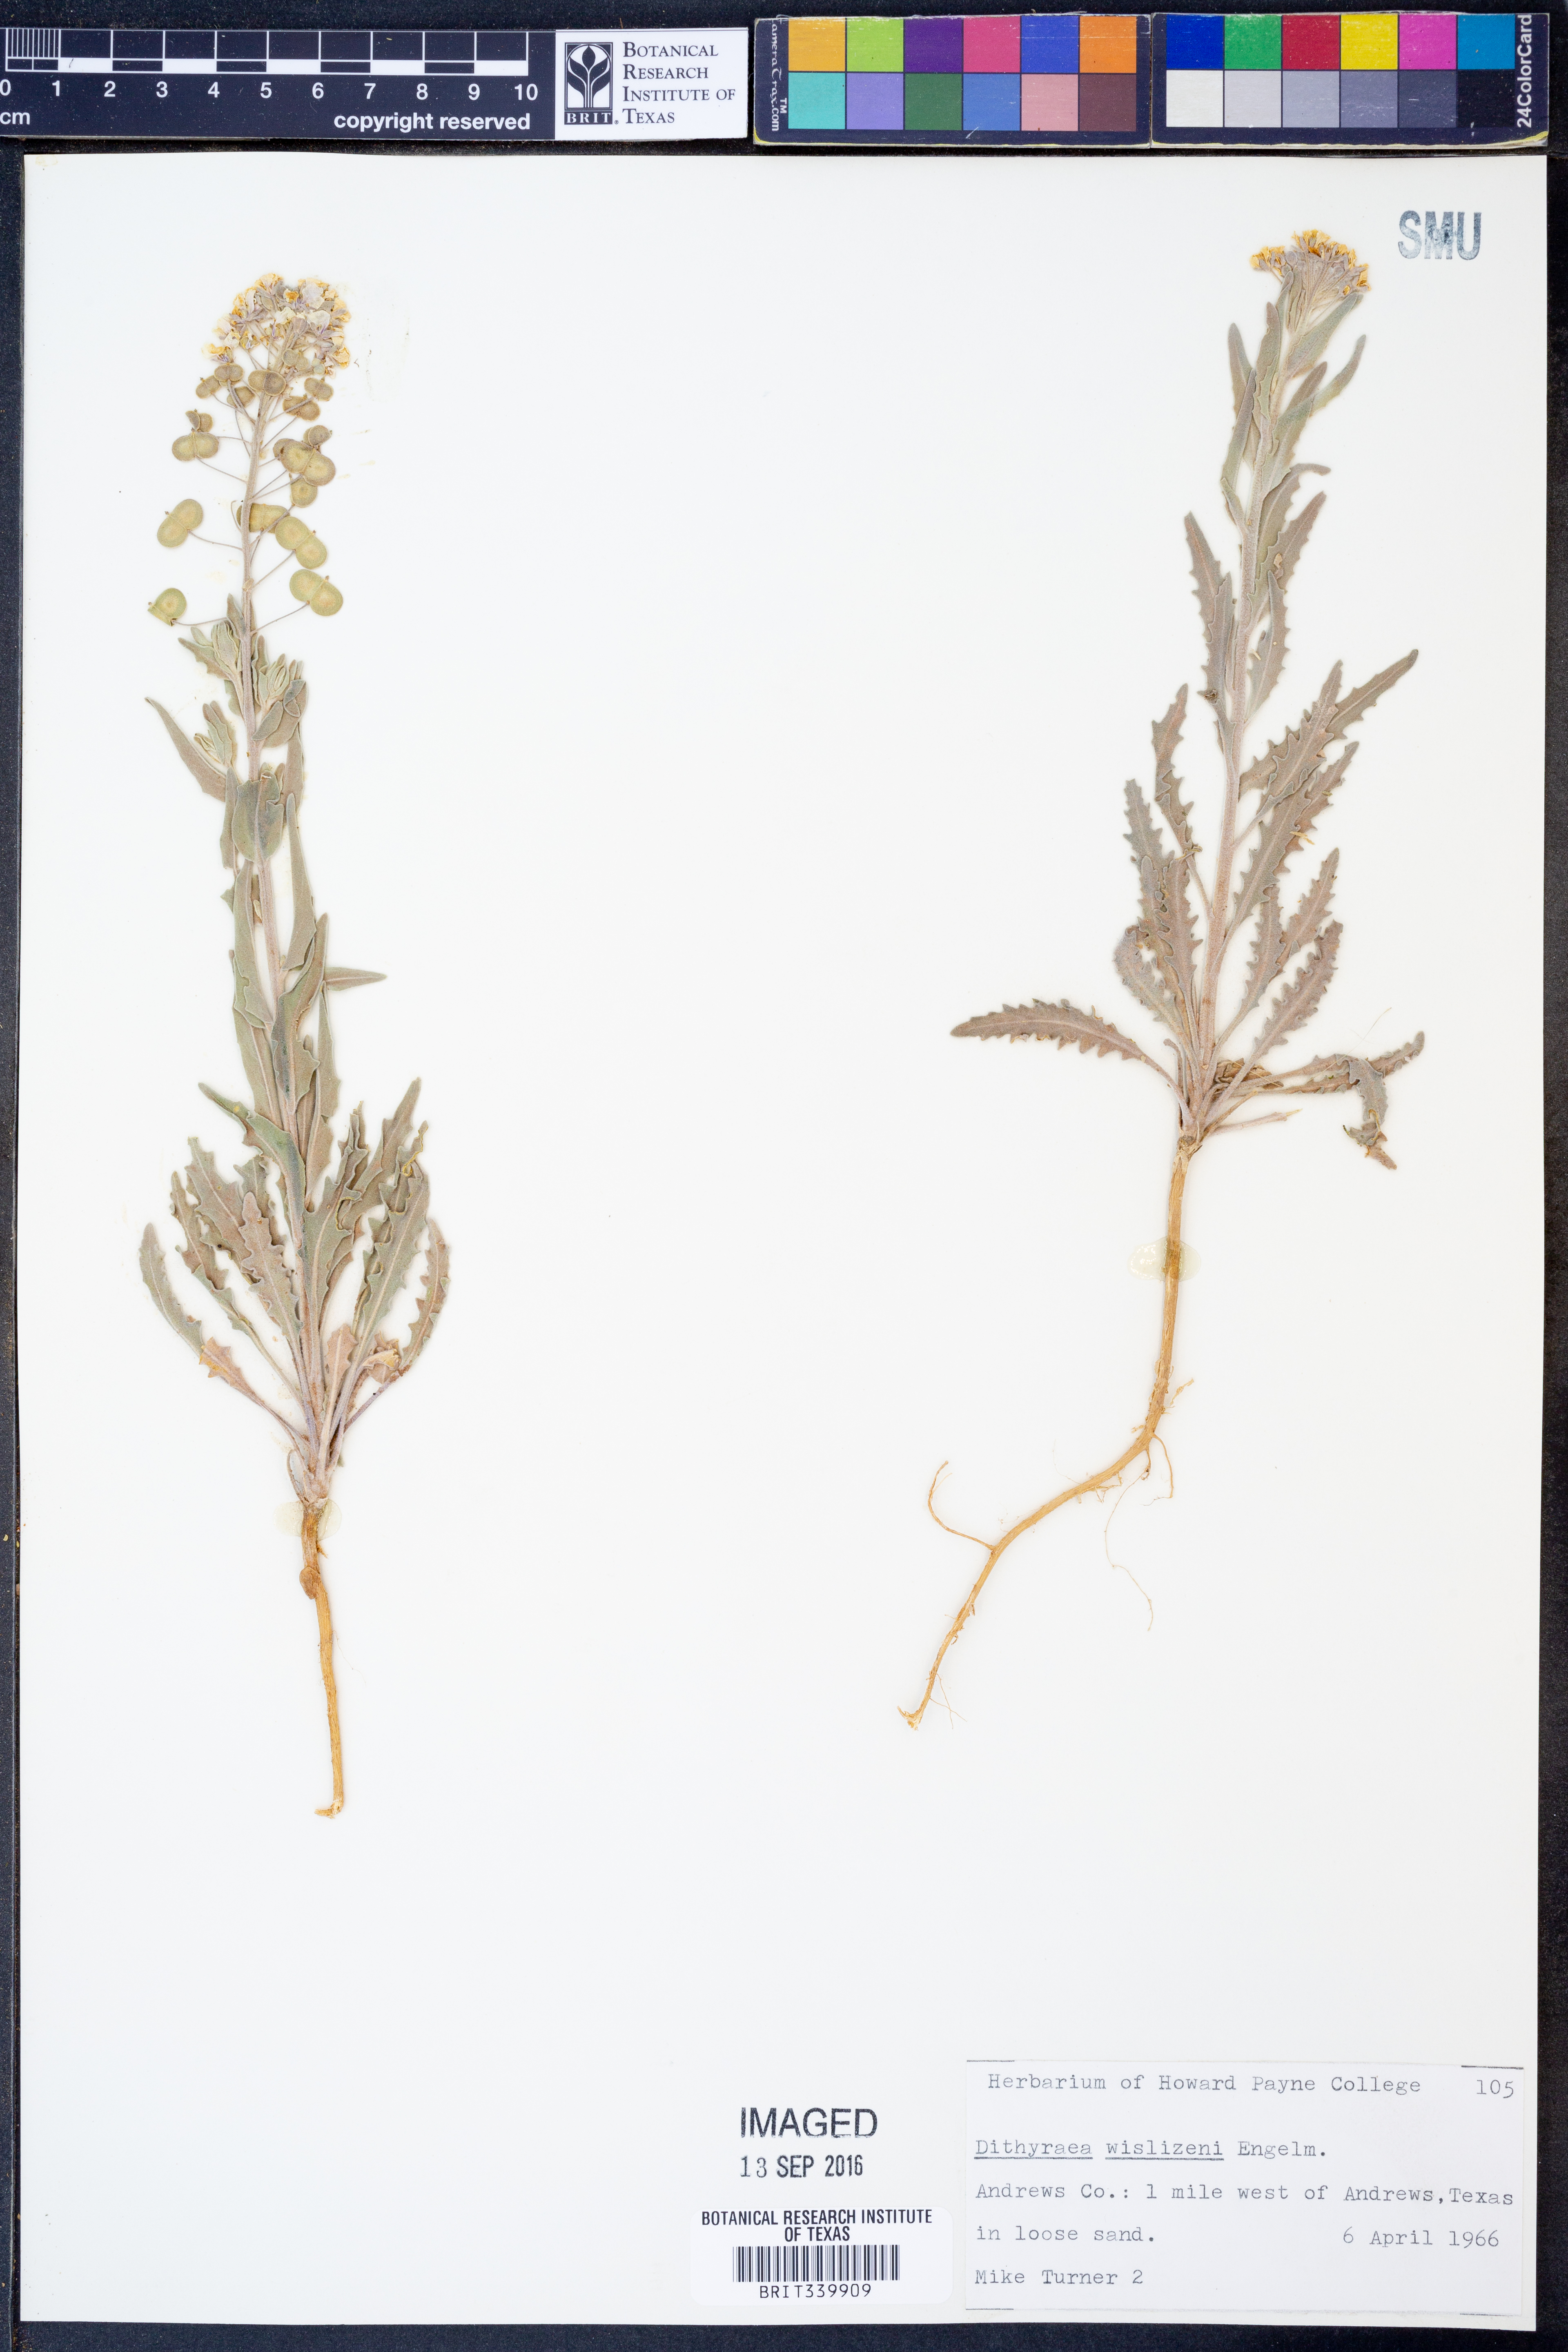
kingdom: Plantae
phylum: Tracheophyta
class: Magnoliopsida
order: Brassicales
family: Brassicaceae
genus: Dimorphocarpa
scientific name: Dimorphocarpa wislizenii
